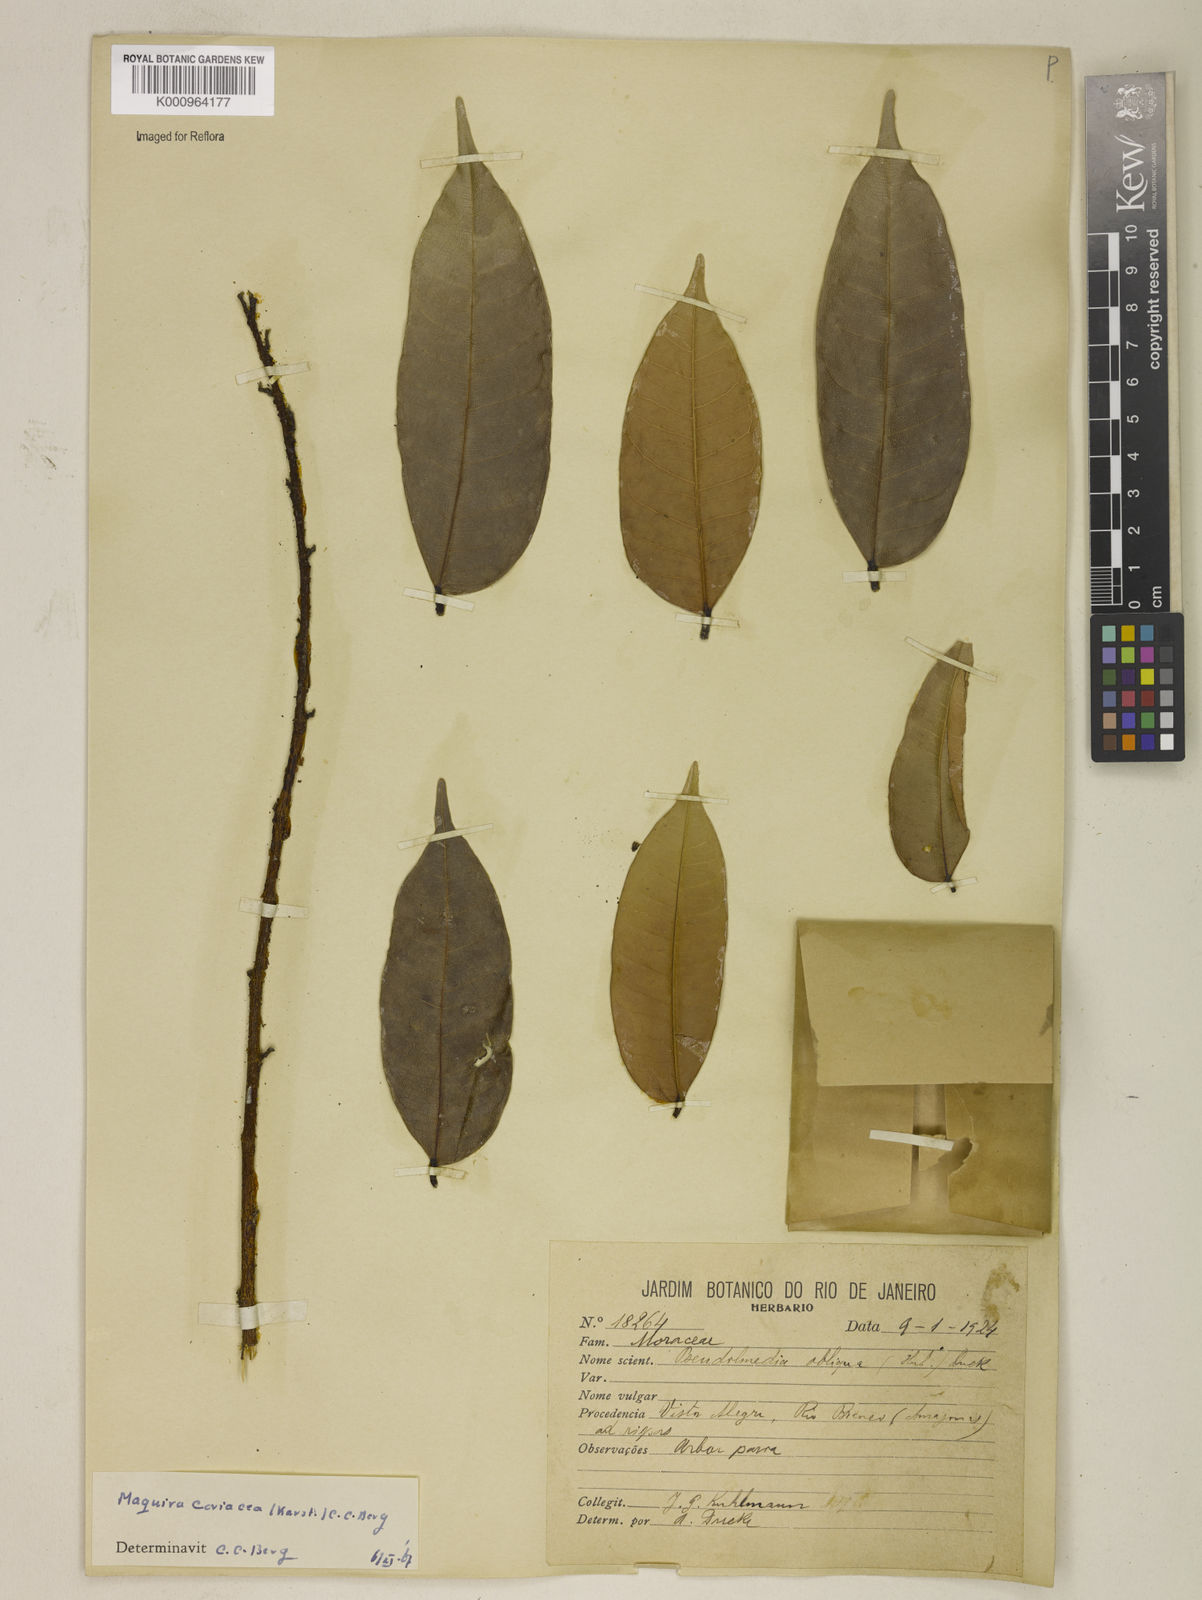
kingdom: Plantae
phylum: Tracheophyta
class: Magnoliopsida
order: Rosales
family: Moraceae
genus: Maquira
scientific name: Maquira coriacea
